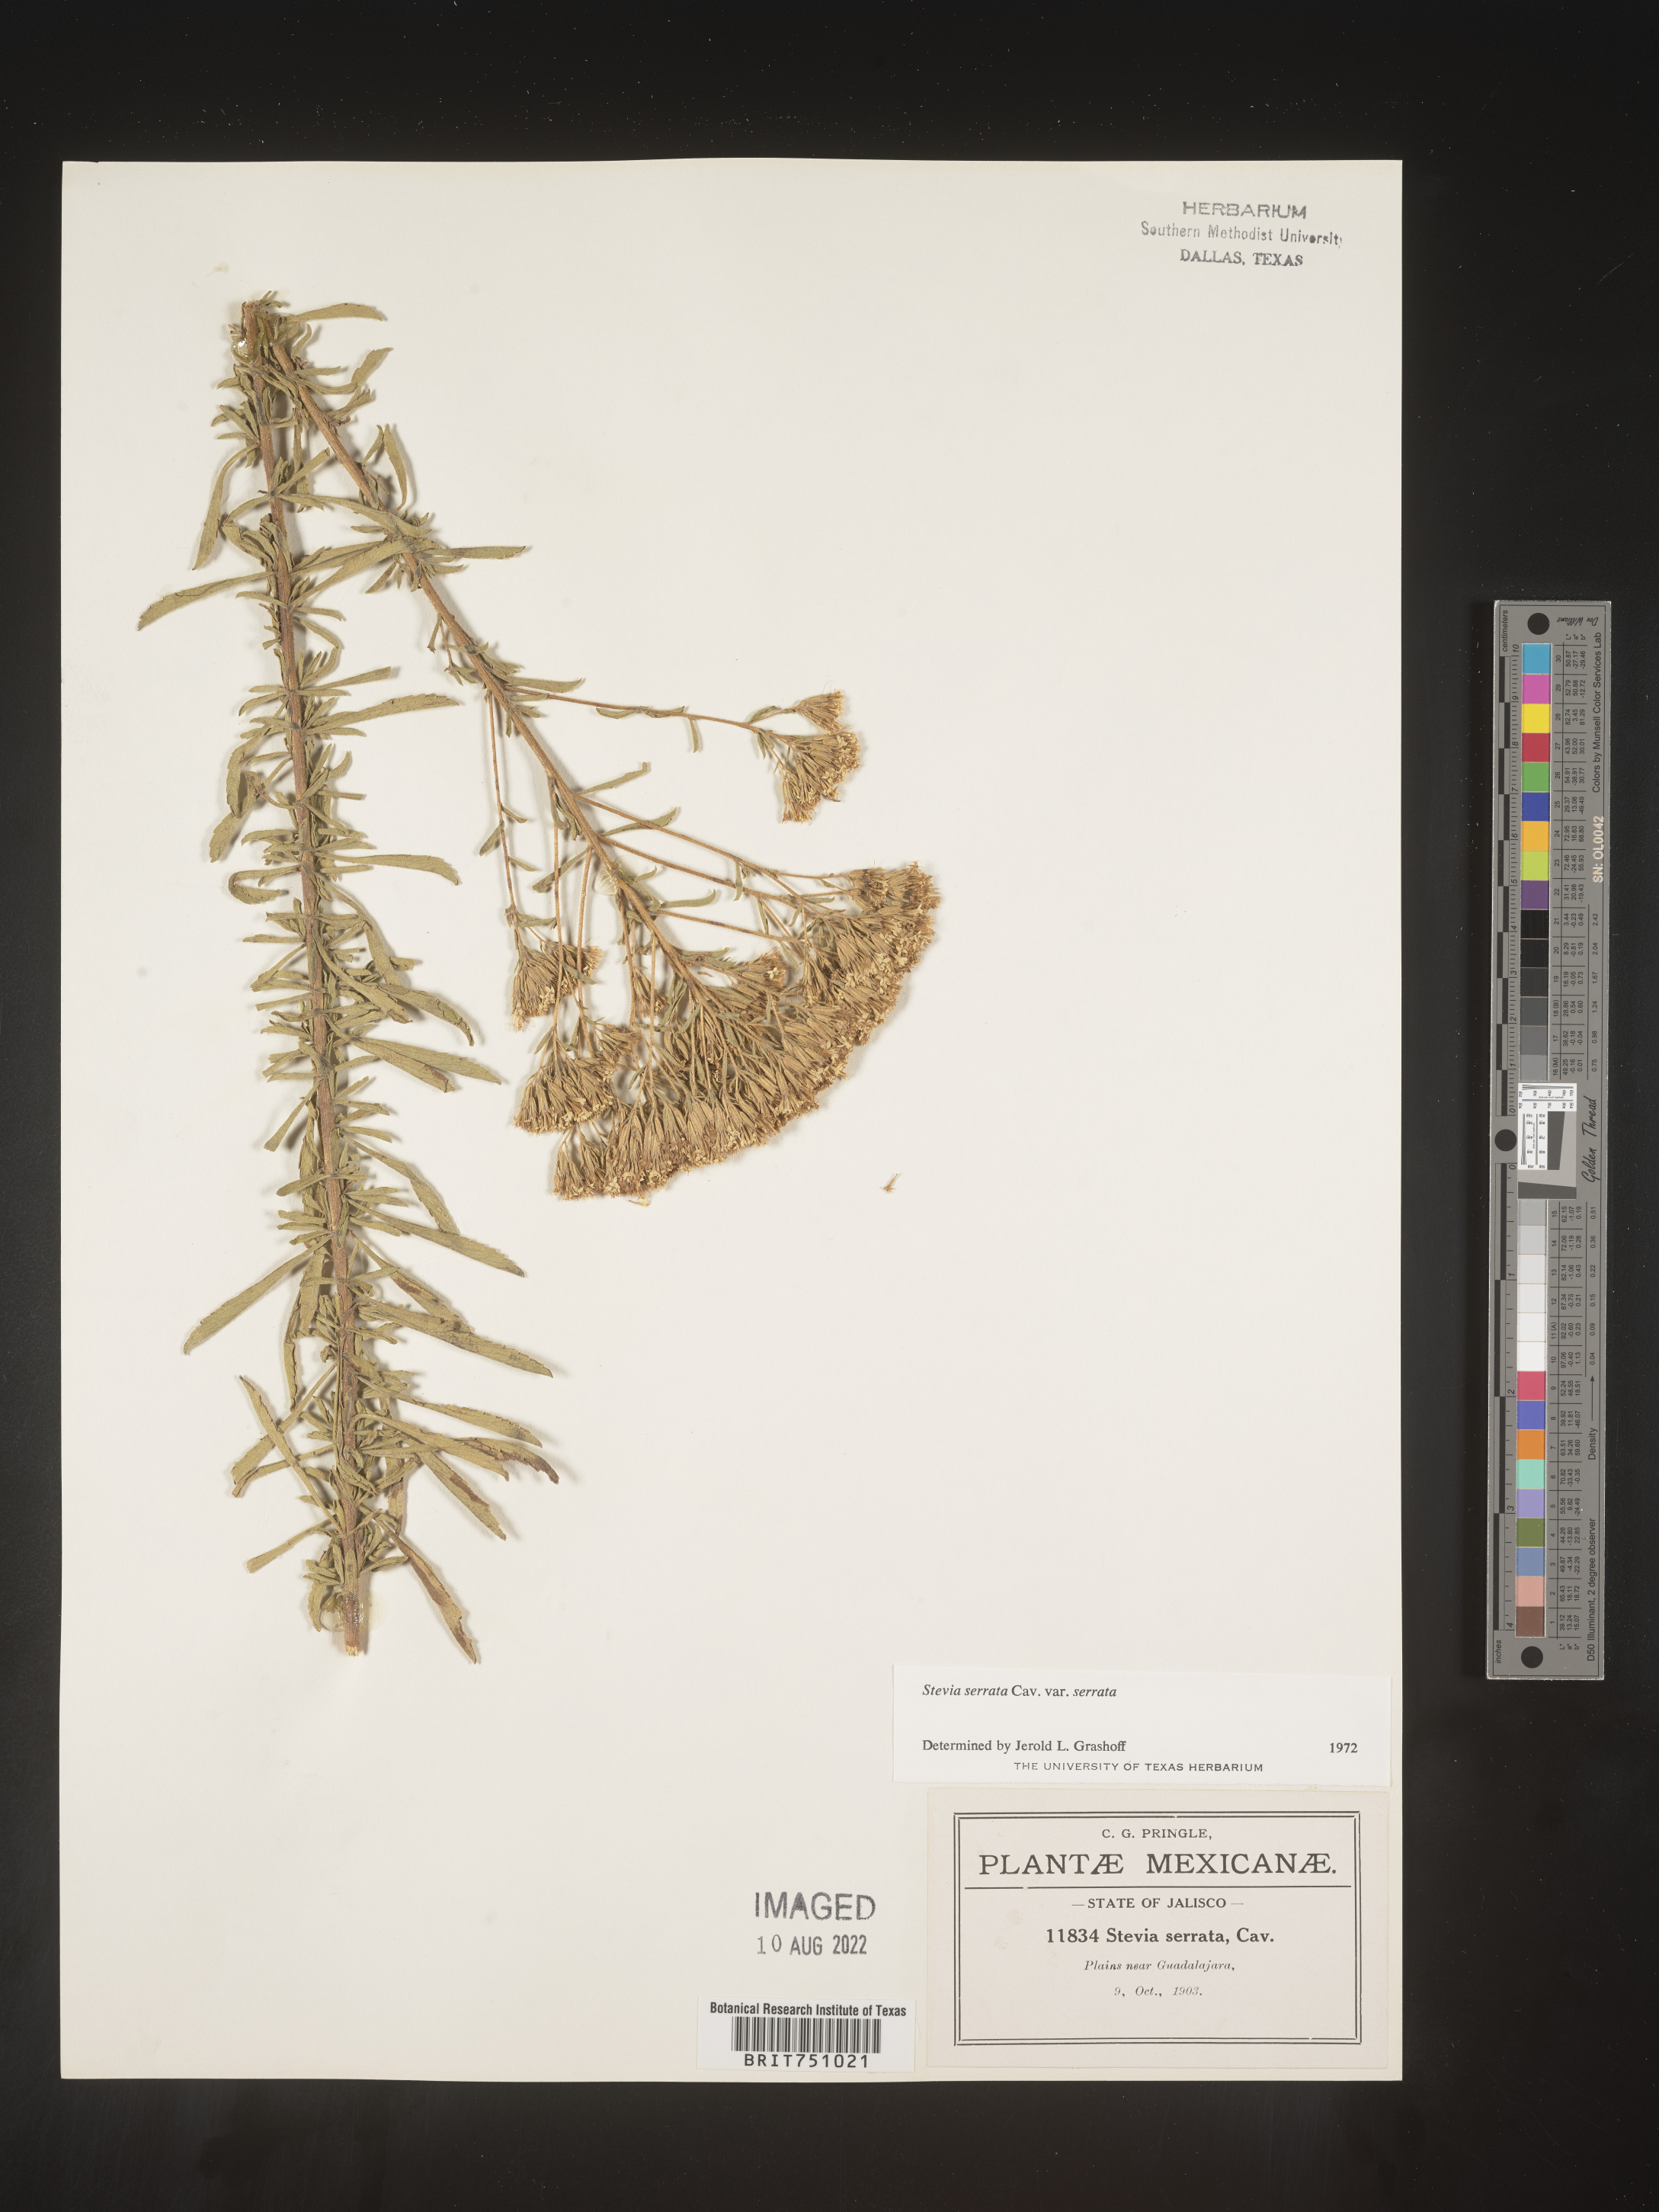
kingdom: Plantae
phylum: Tracheophyta
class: Magnoliopsida
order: Asterales
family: Asteraceae
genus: Stevia
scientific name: Stevia serrata
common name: Sawtooth candyleaf
